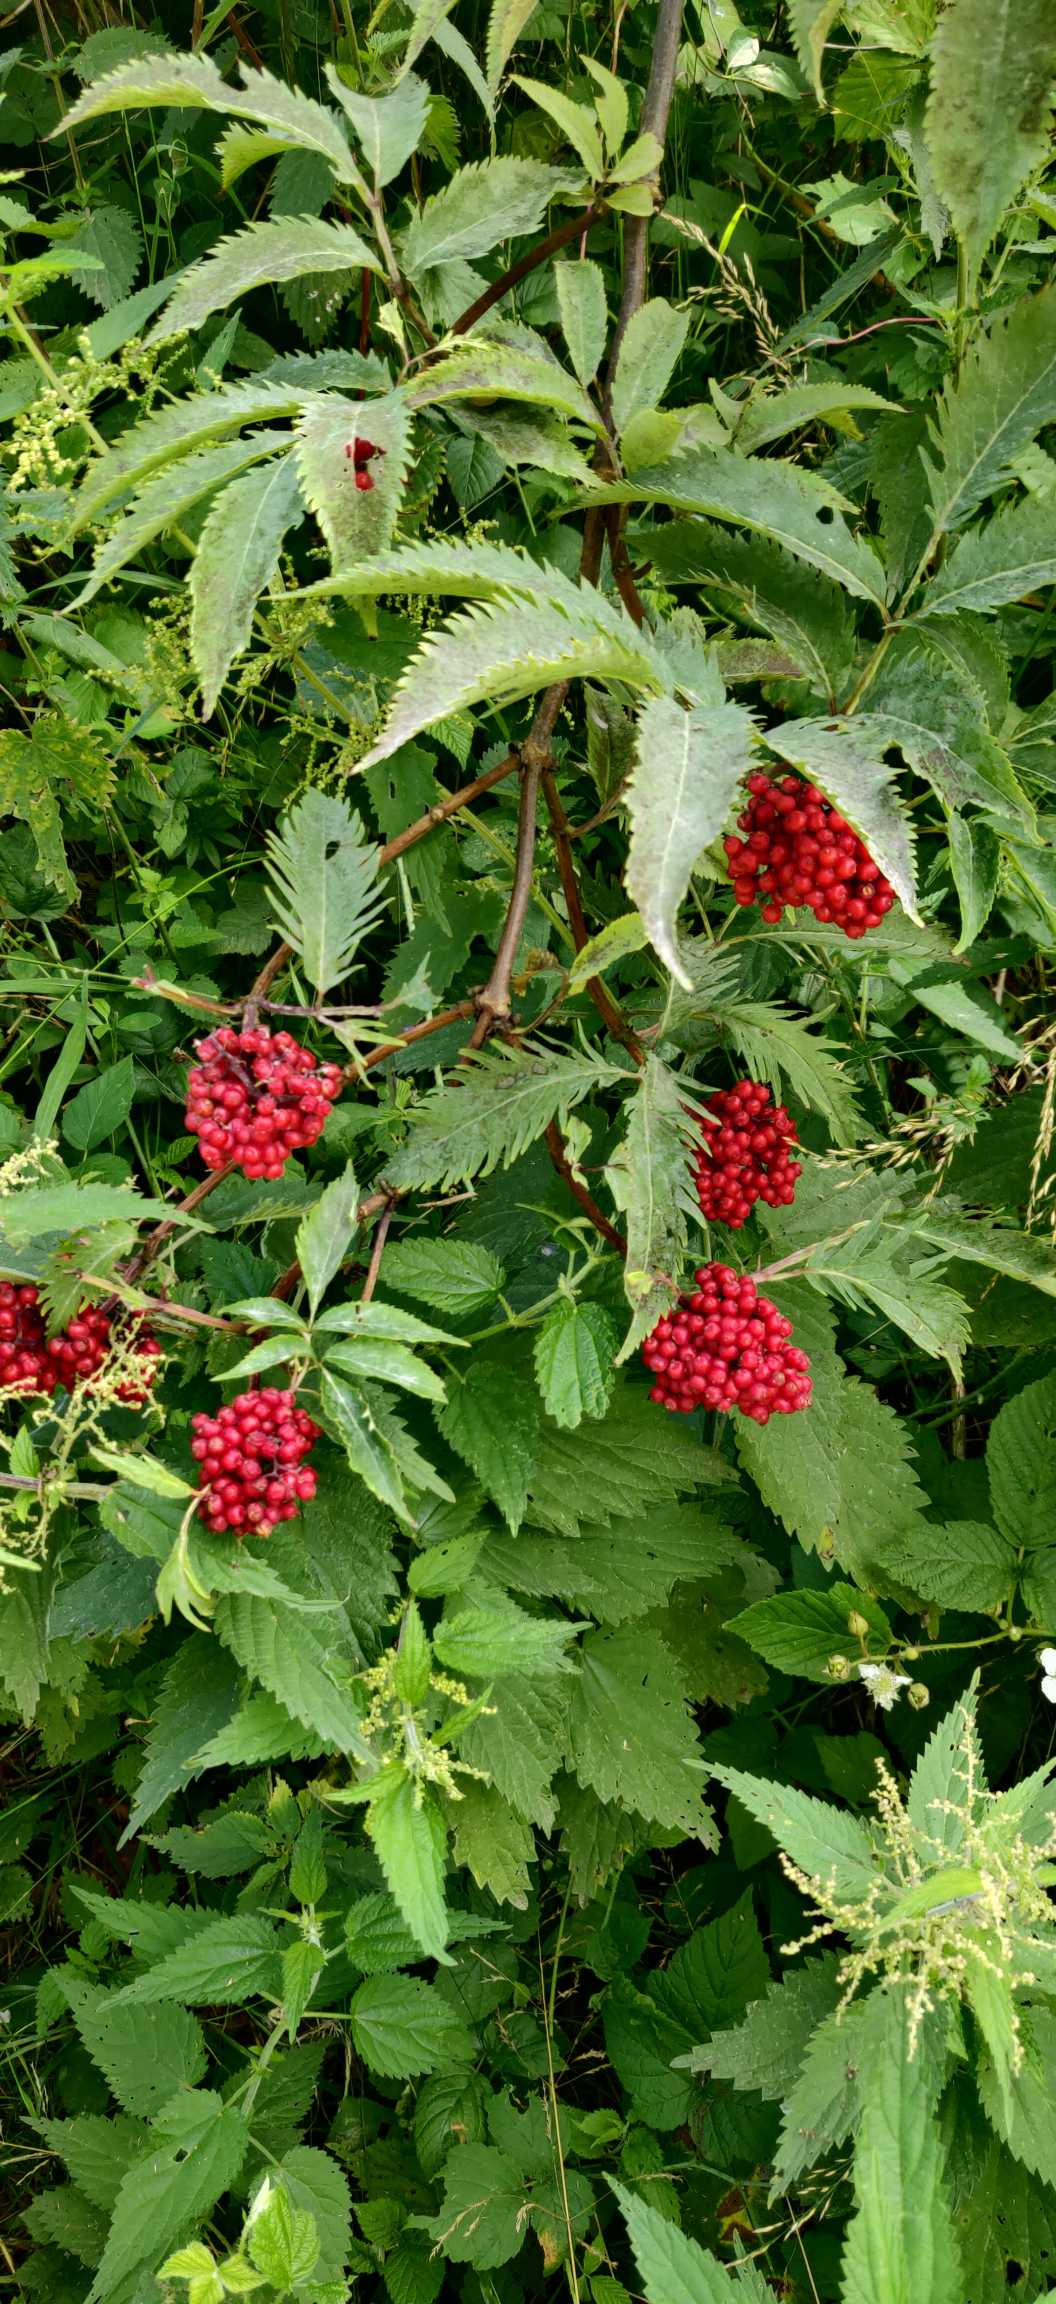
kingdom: Plantae
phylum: Tracheophyta
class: Magnoliopsida
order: Dipsacales
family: Viburnaceae
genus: Sambucus
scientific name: Sambucus racemosa
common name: Drue-hyld
